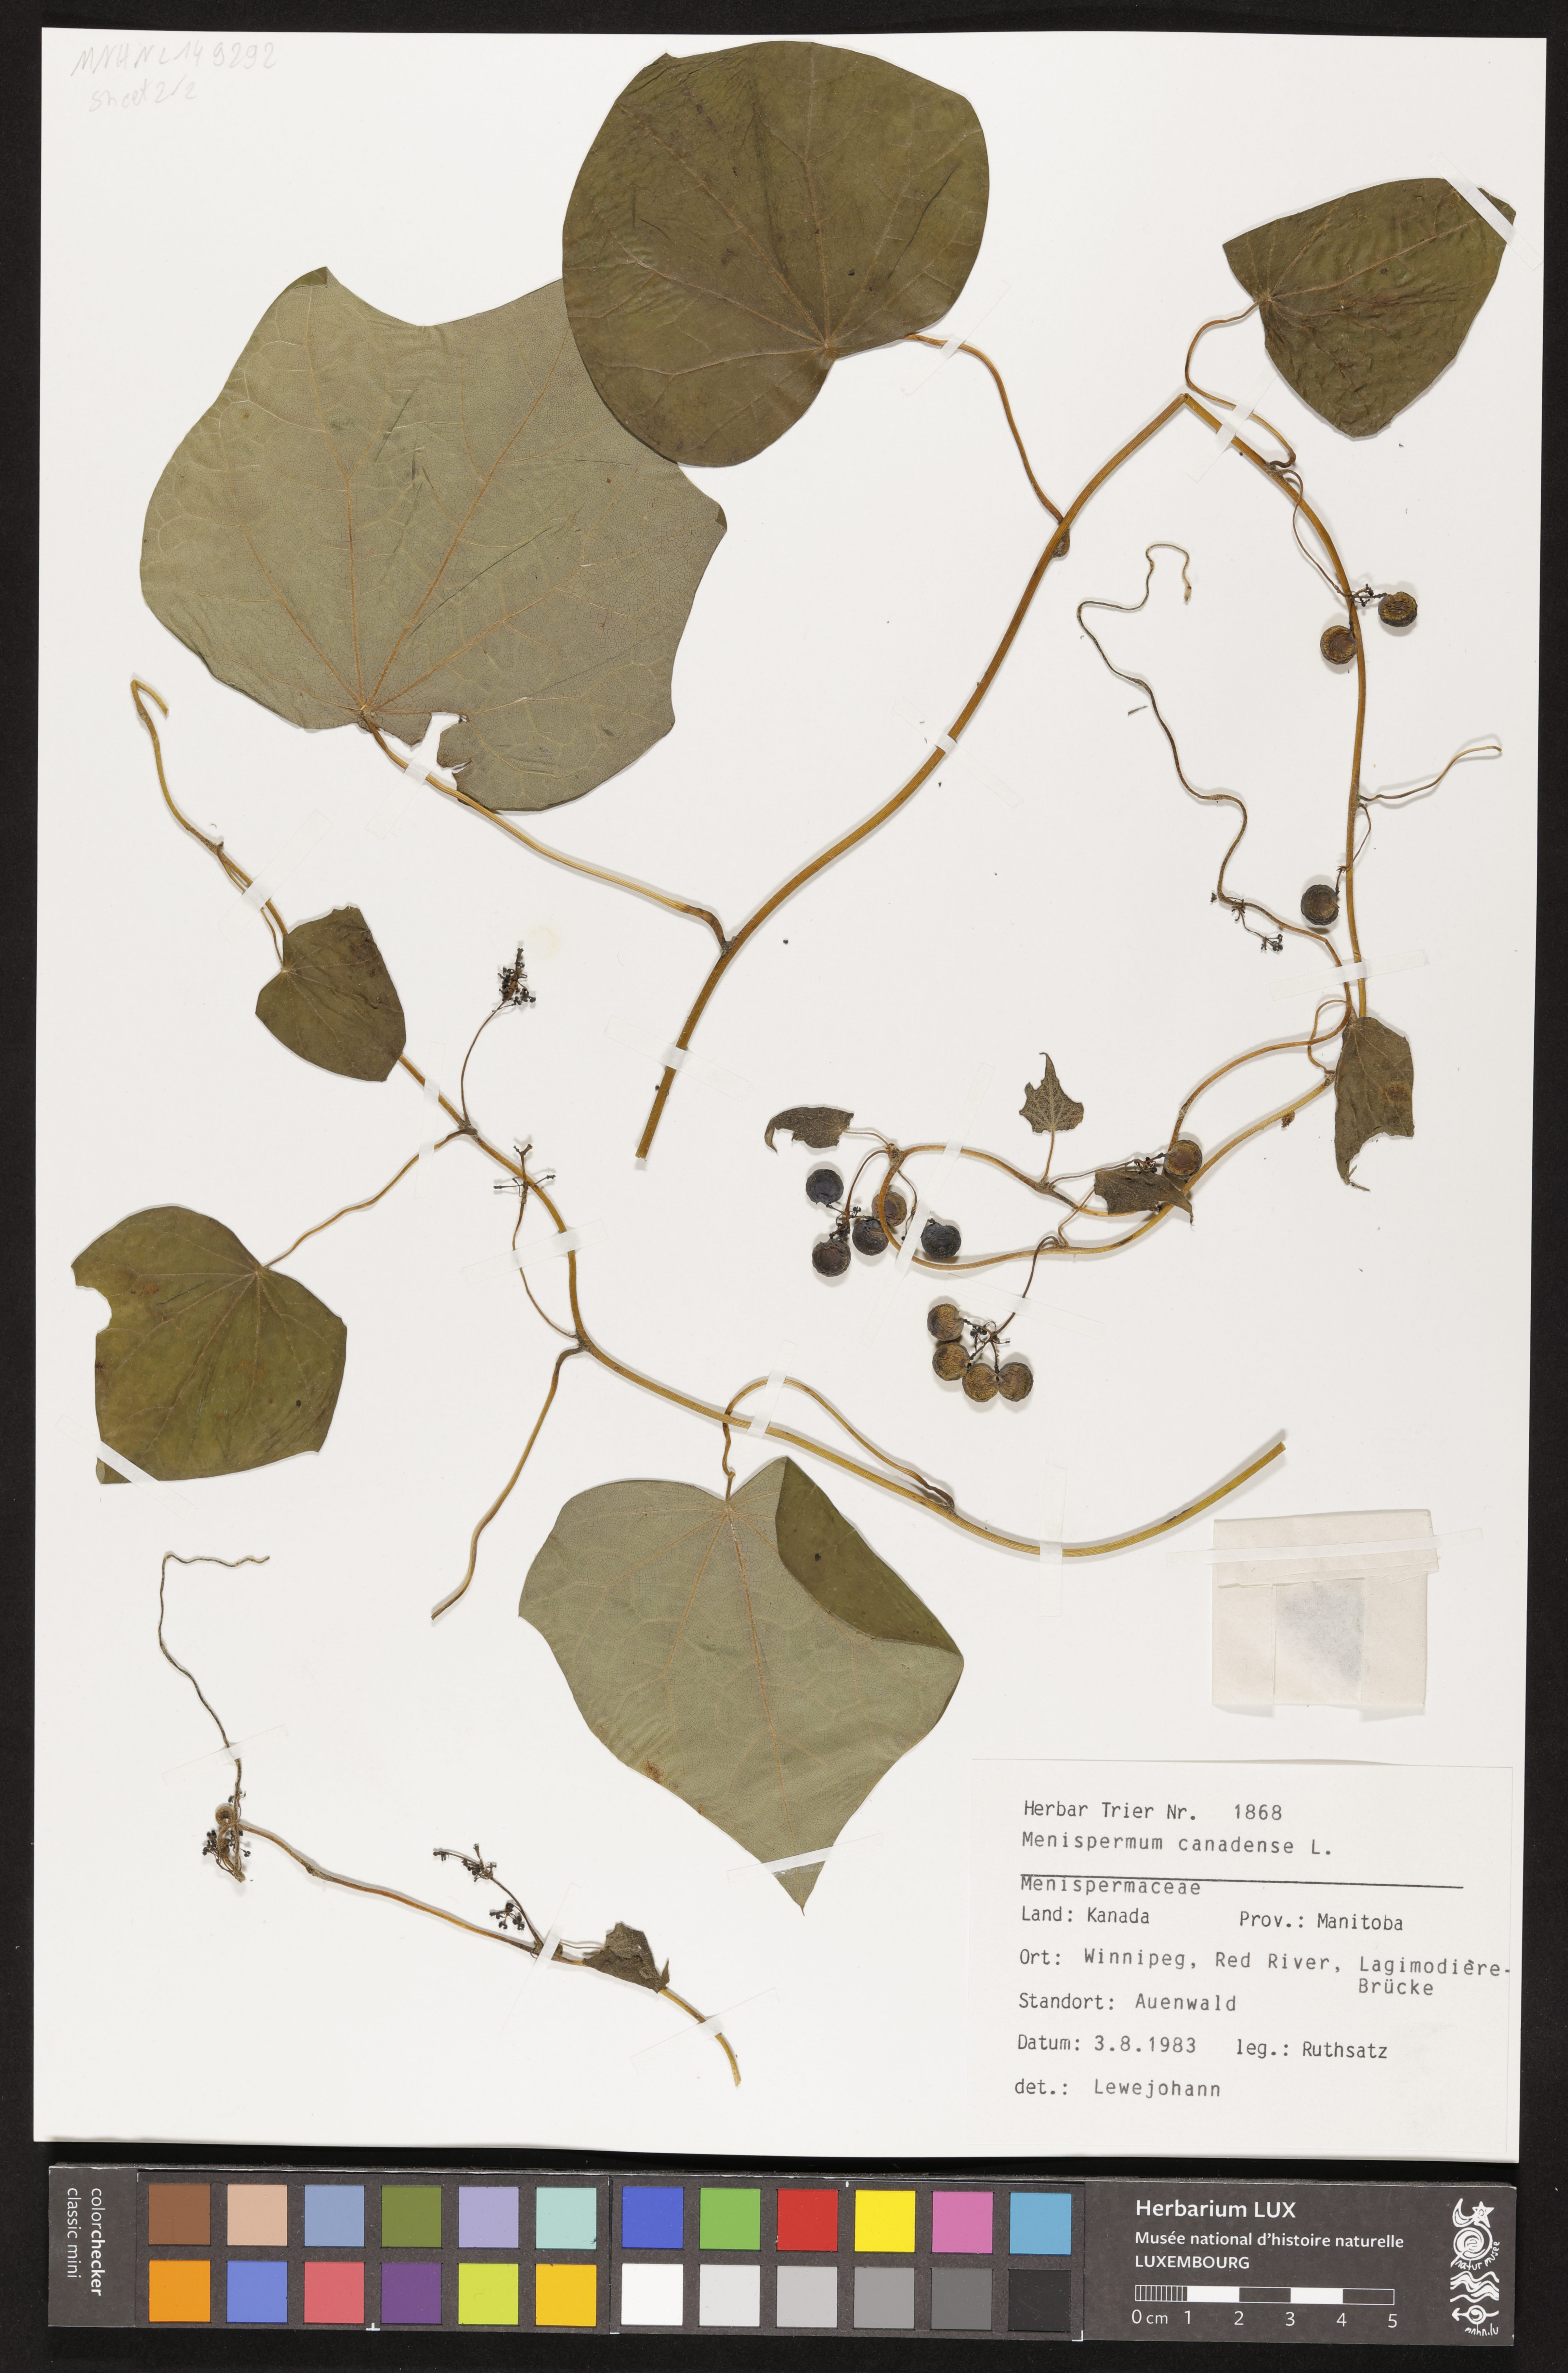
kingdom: Plantae
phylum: Tracheophyta
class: Magnoliopsida
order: Ranunculales
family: Menispermaceae
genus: Menispermum
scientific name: Menispermum canadense
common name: Moonseed
